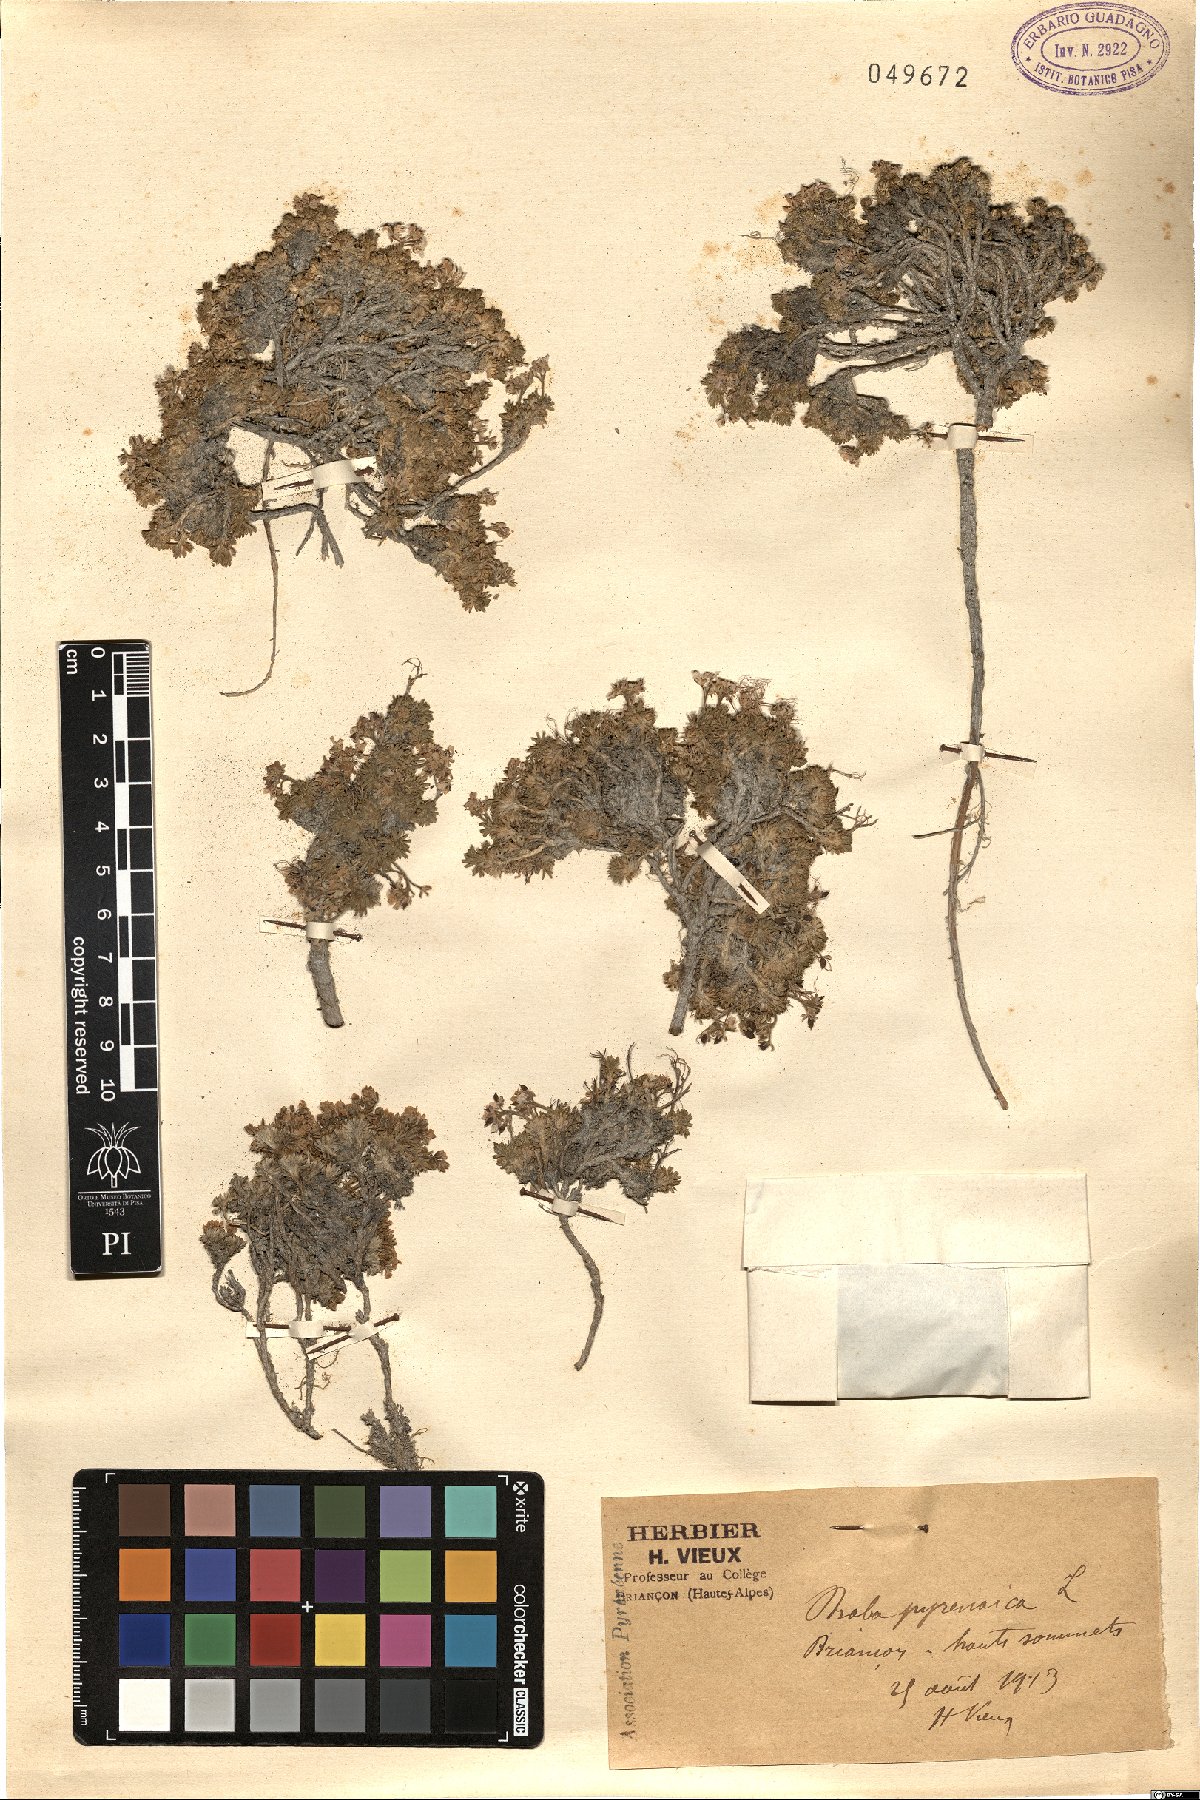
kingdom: Plantae
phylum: Tracheophyta
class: Magnoliopsida
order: Brassicales
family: Brassicaceae
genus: Petrocallis
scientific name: Petrocallis pyrenaica
